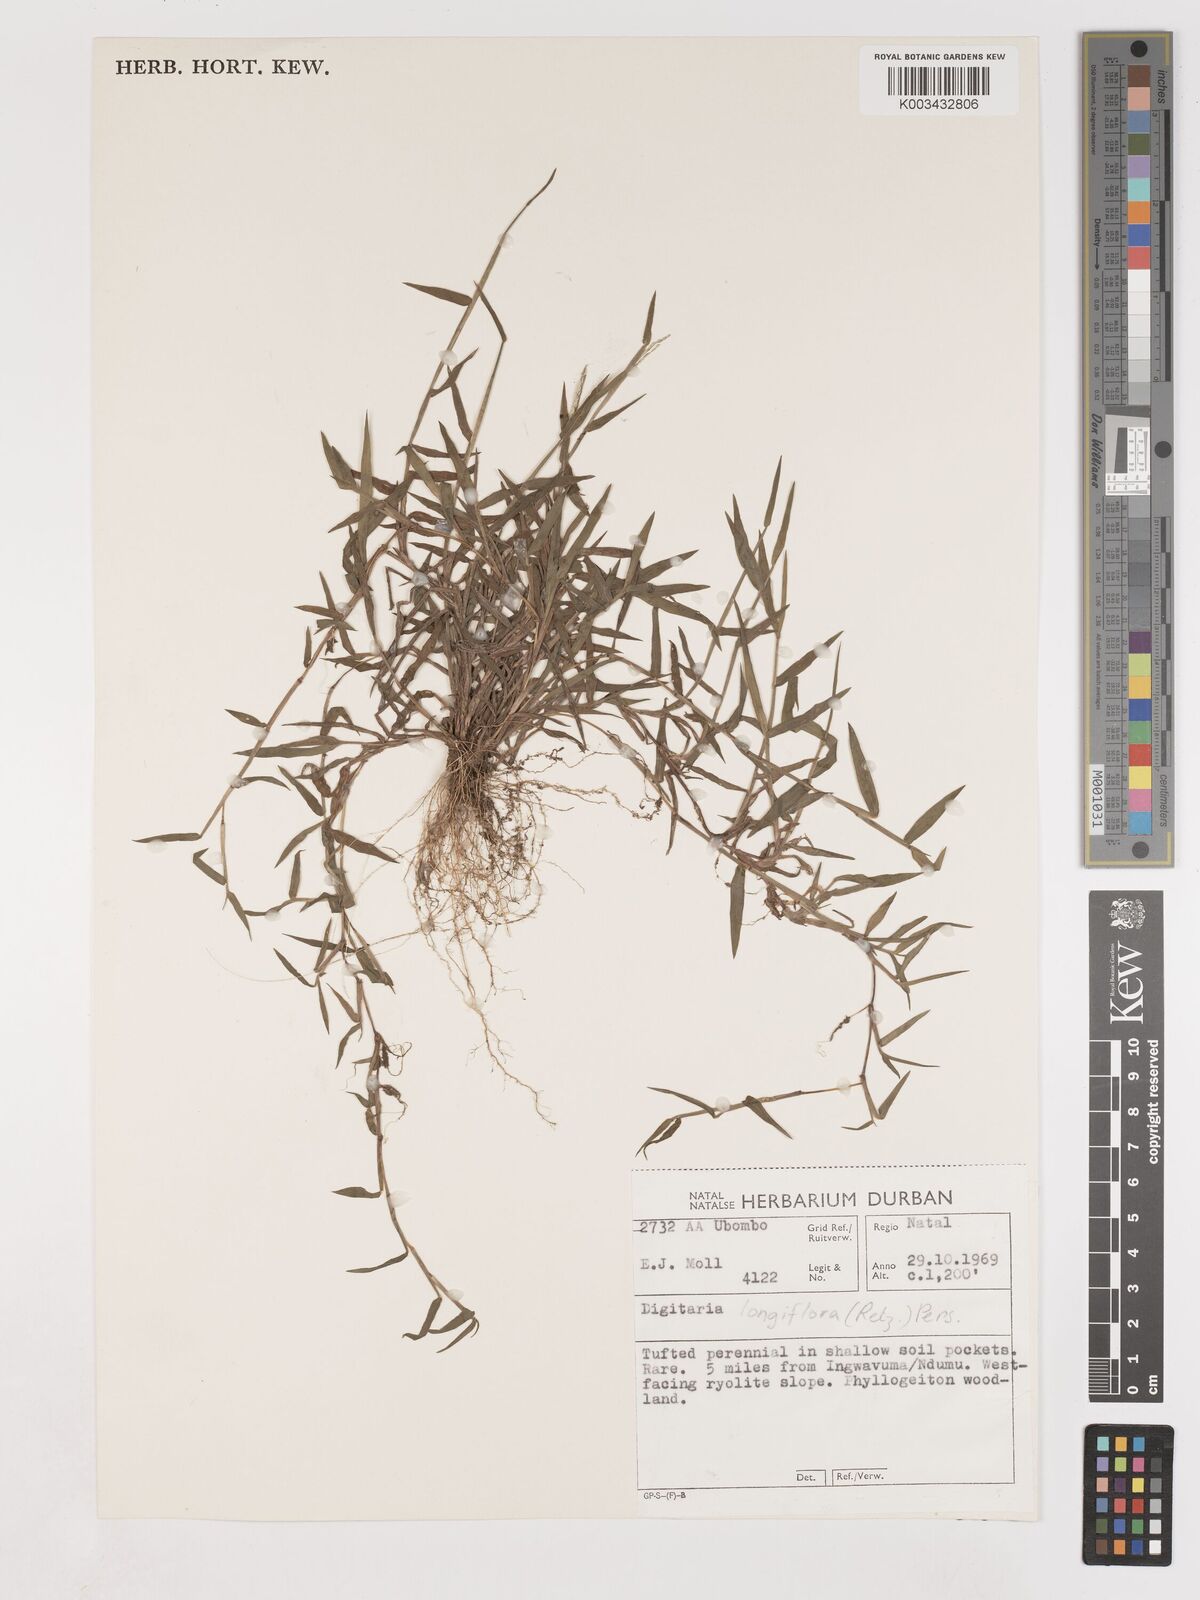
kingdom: Plantae
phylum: Tracheophyta
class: Liliopsida
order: Poales
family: Poaceae
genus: Digitaria
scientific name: Digitaria longiflora
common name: Wire crabgrass
